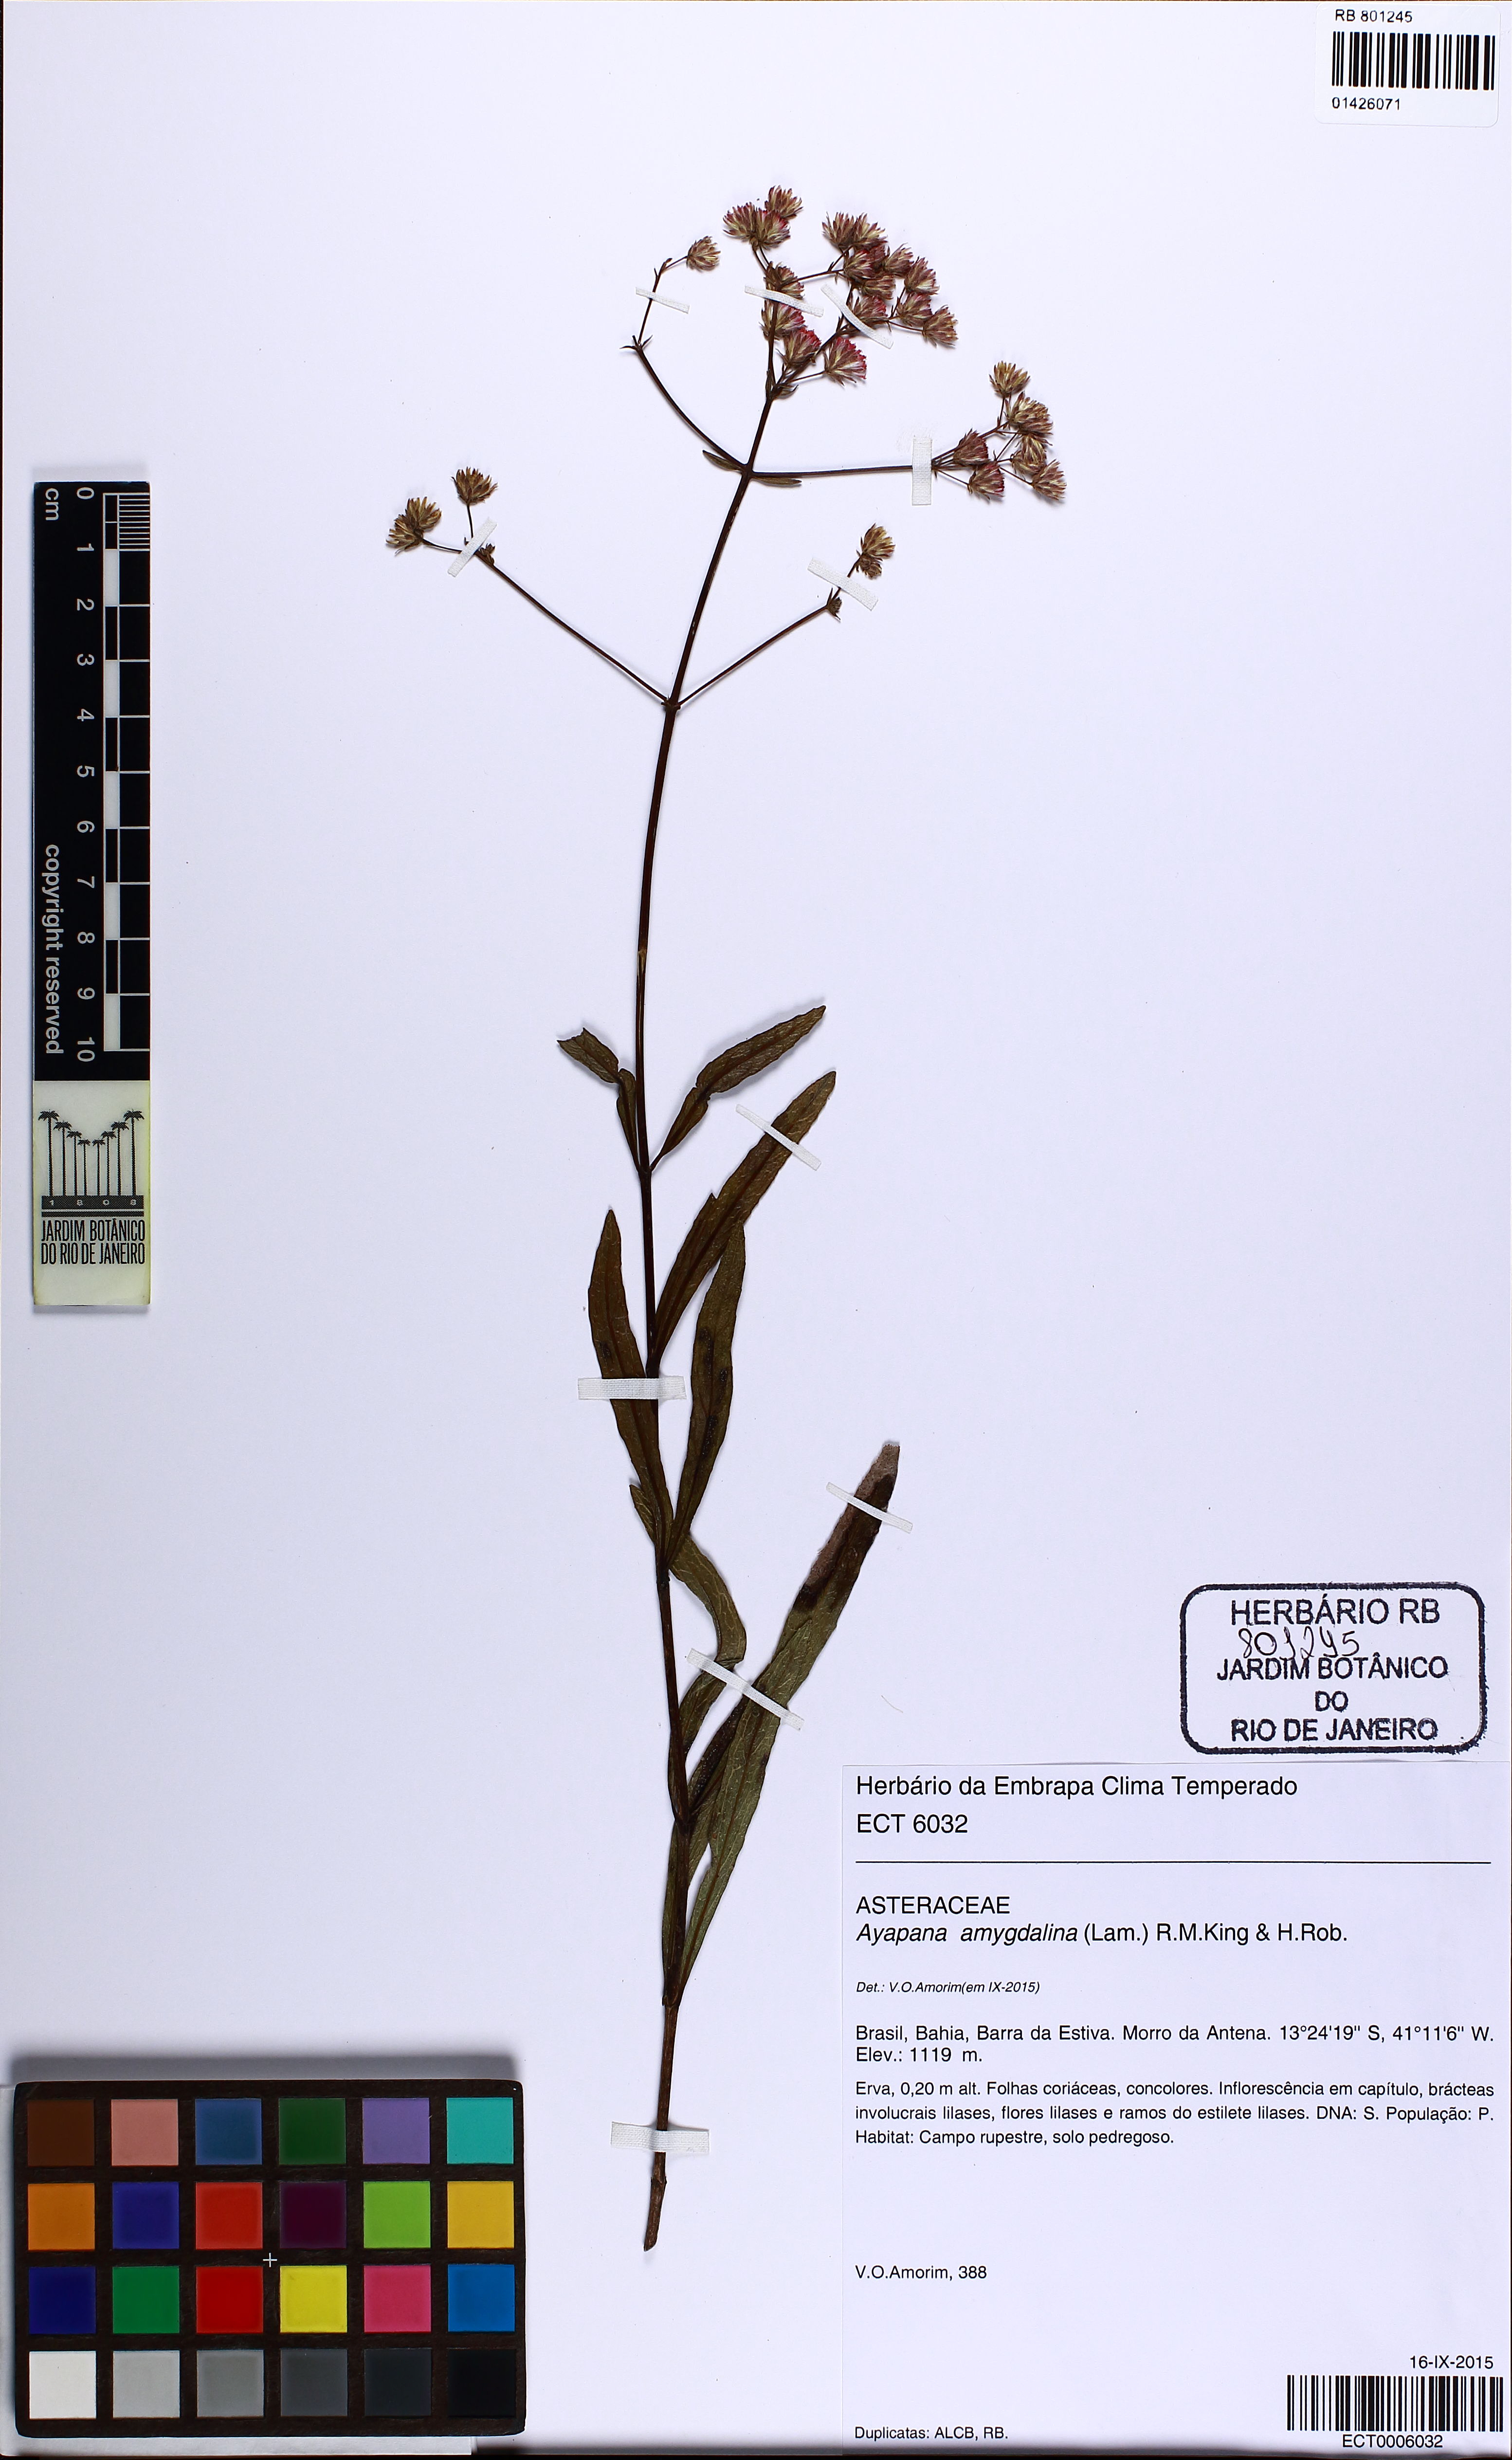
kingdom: Plantae
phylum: Tracheophyta
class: Magnoliopsida
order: Asterales
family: Asteraceae
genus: Ayapana
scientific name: Ayapana amygdalina
